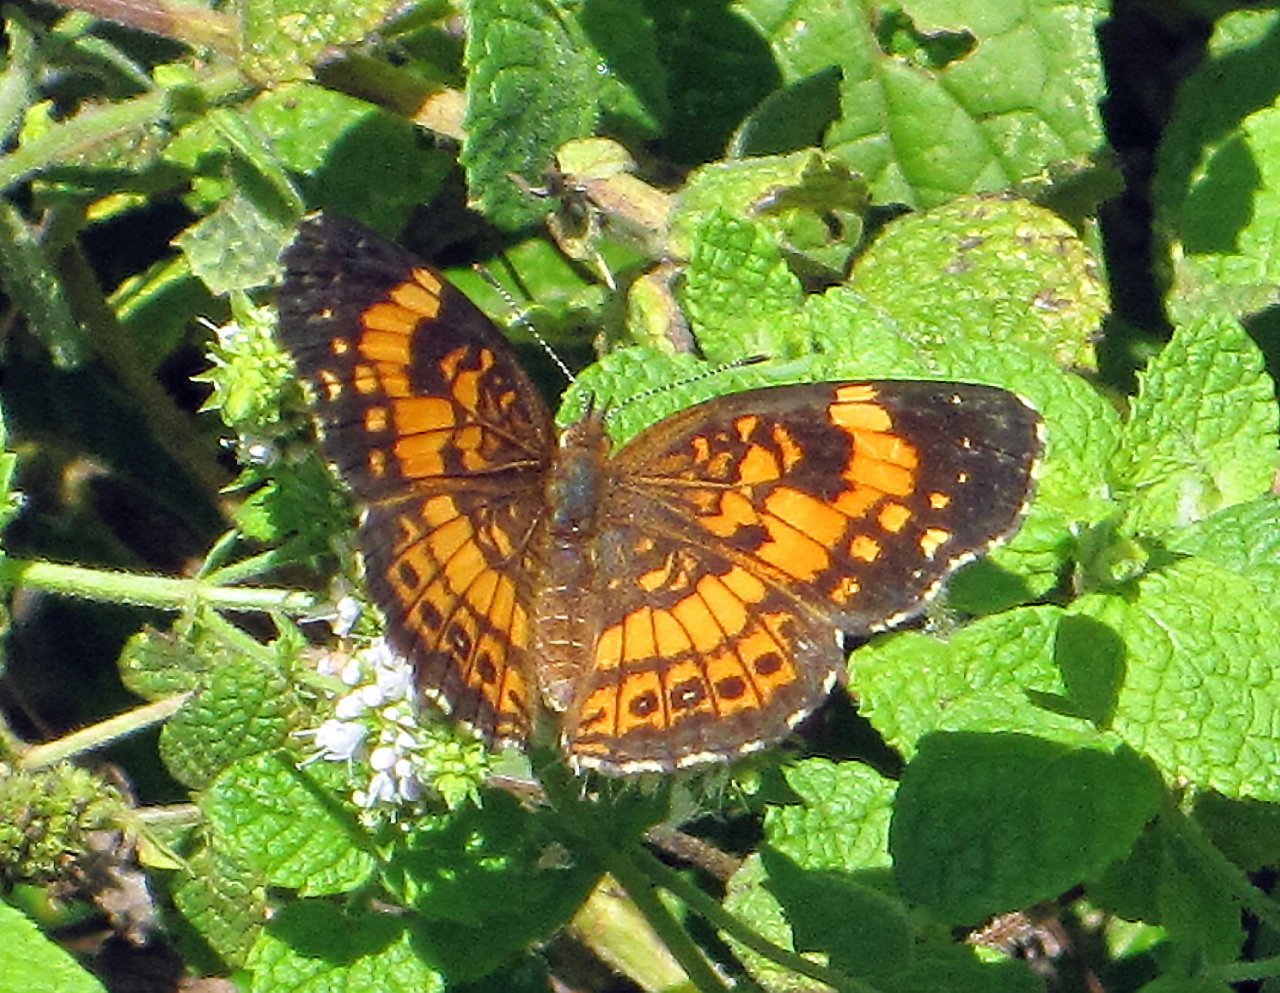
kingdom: Animalia
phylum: Arthropoda
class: Insecta
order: Lepidoptera
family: Nymphalidae
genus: Chlosyne
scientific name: Chlosyne nycteis
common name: Silvery Checkerspot
